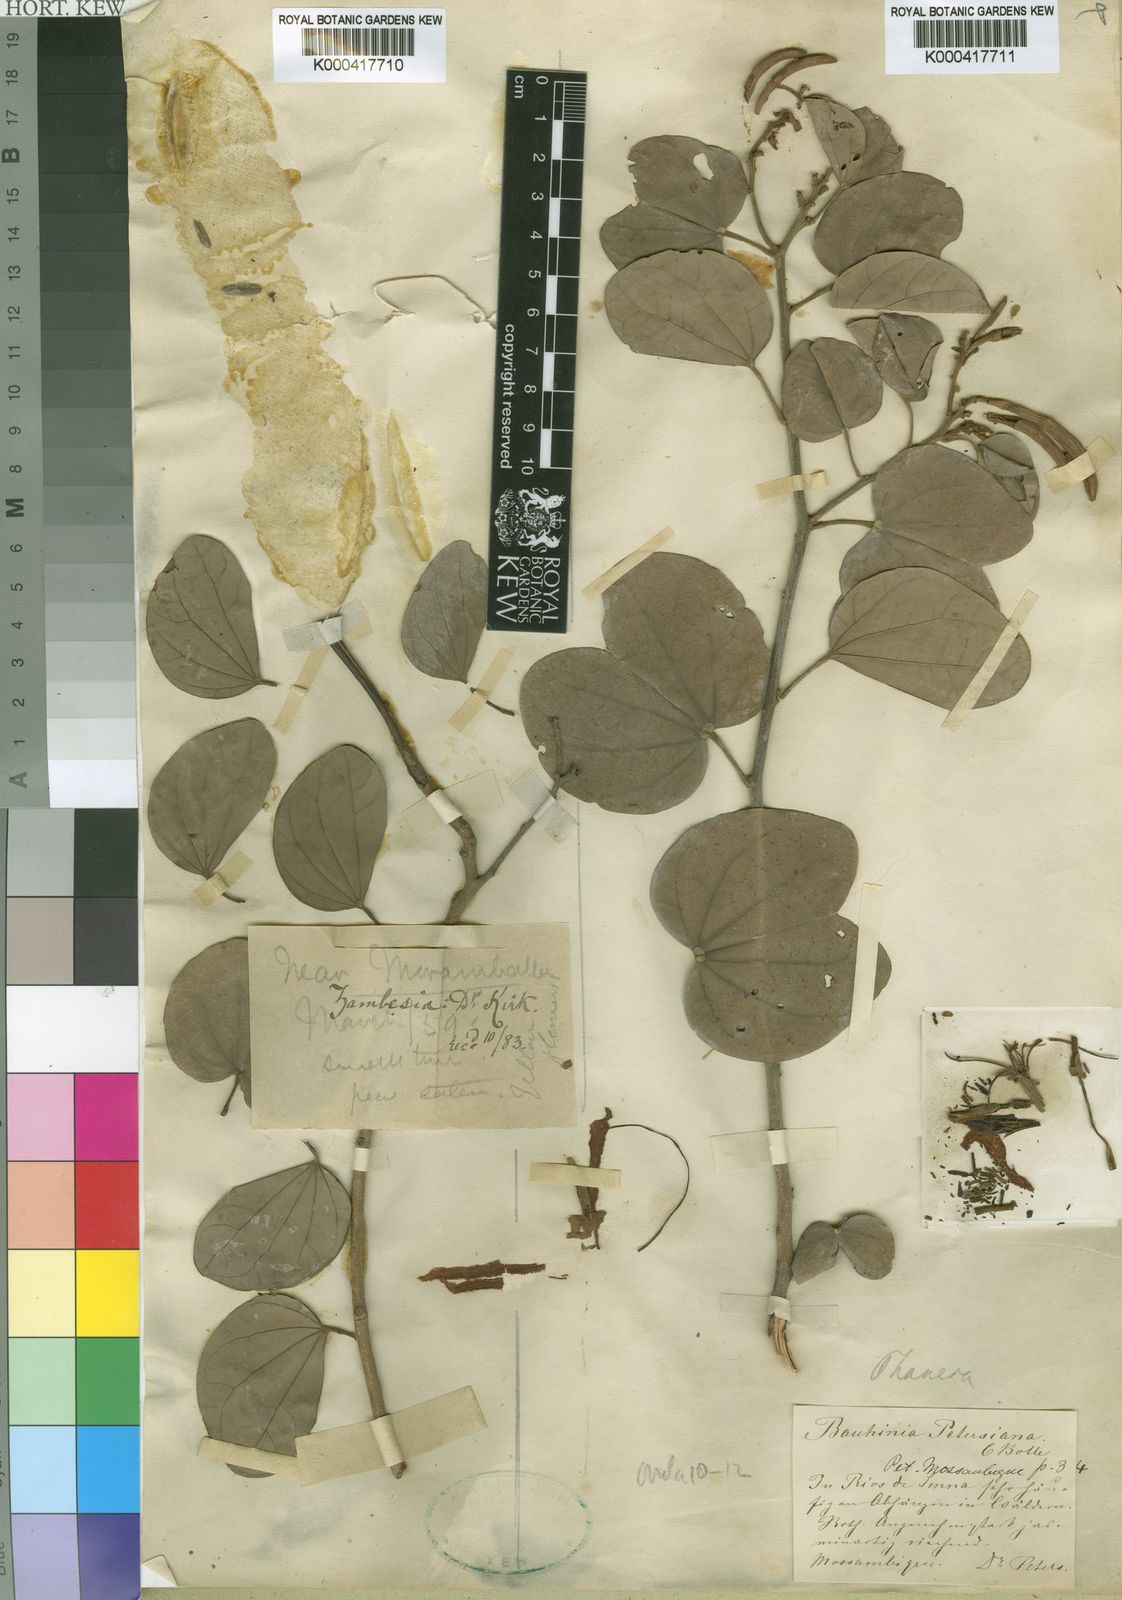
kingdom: Plantae
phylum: Tracheophyta
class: Magnoliopsida
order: Fabales
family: Fabaceae
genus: Bauhinia
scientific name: Bauhinia petersiana
